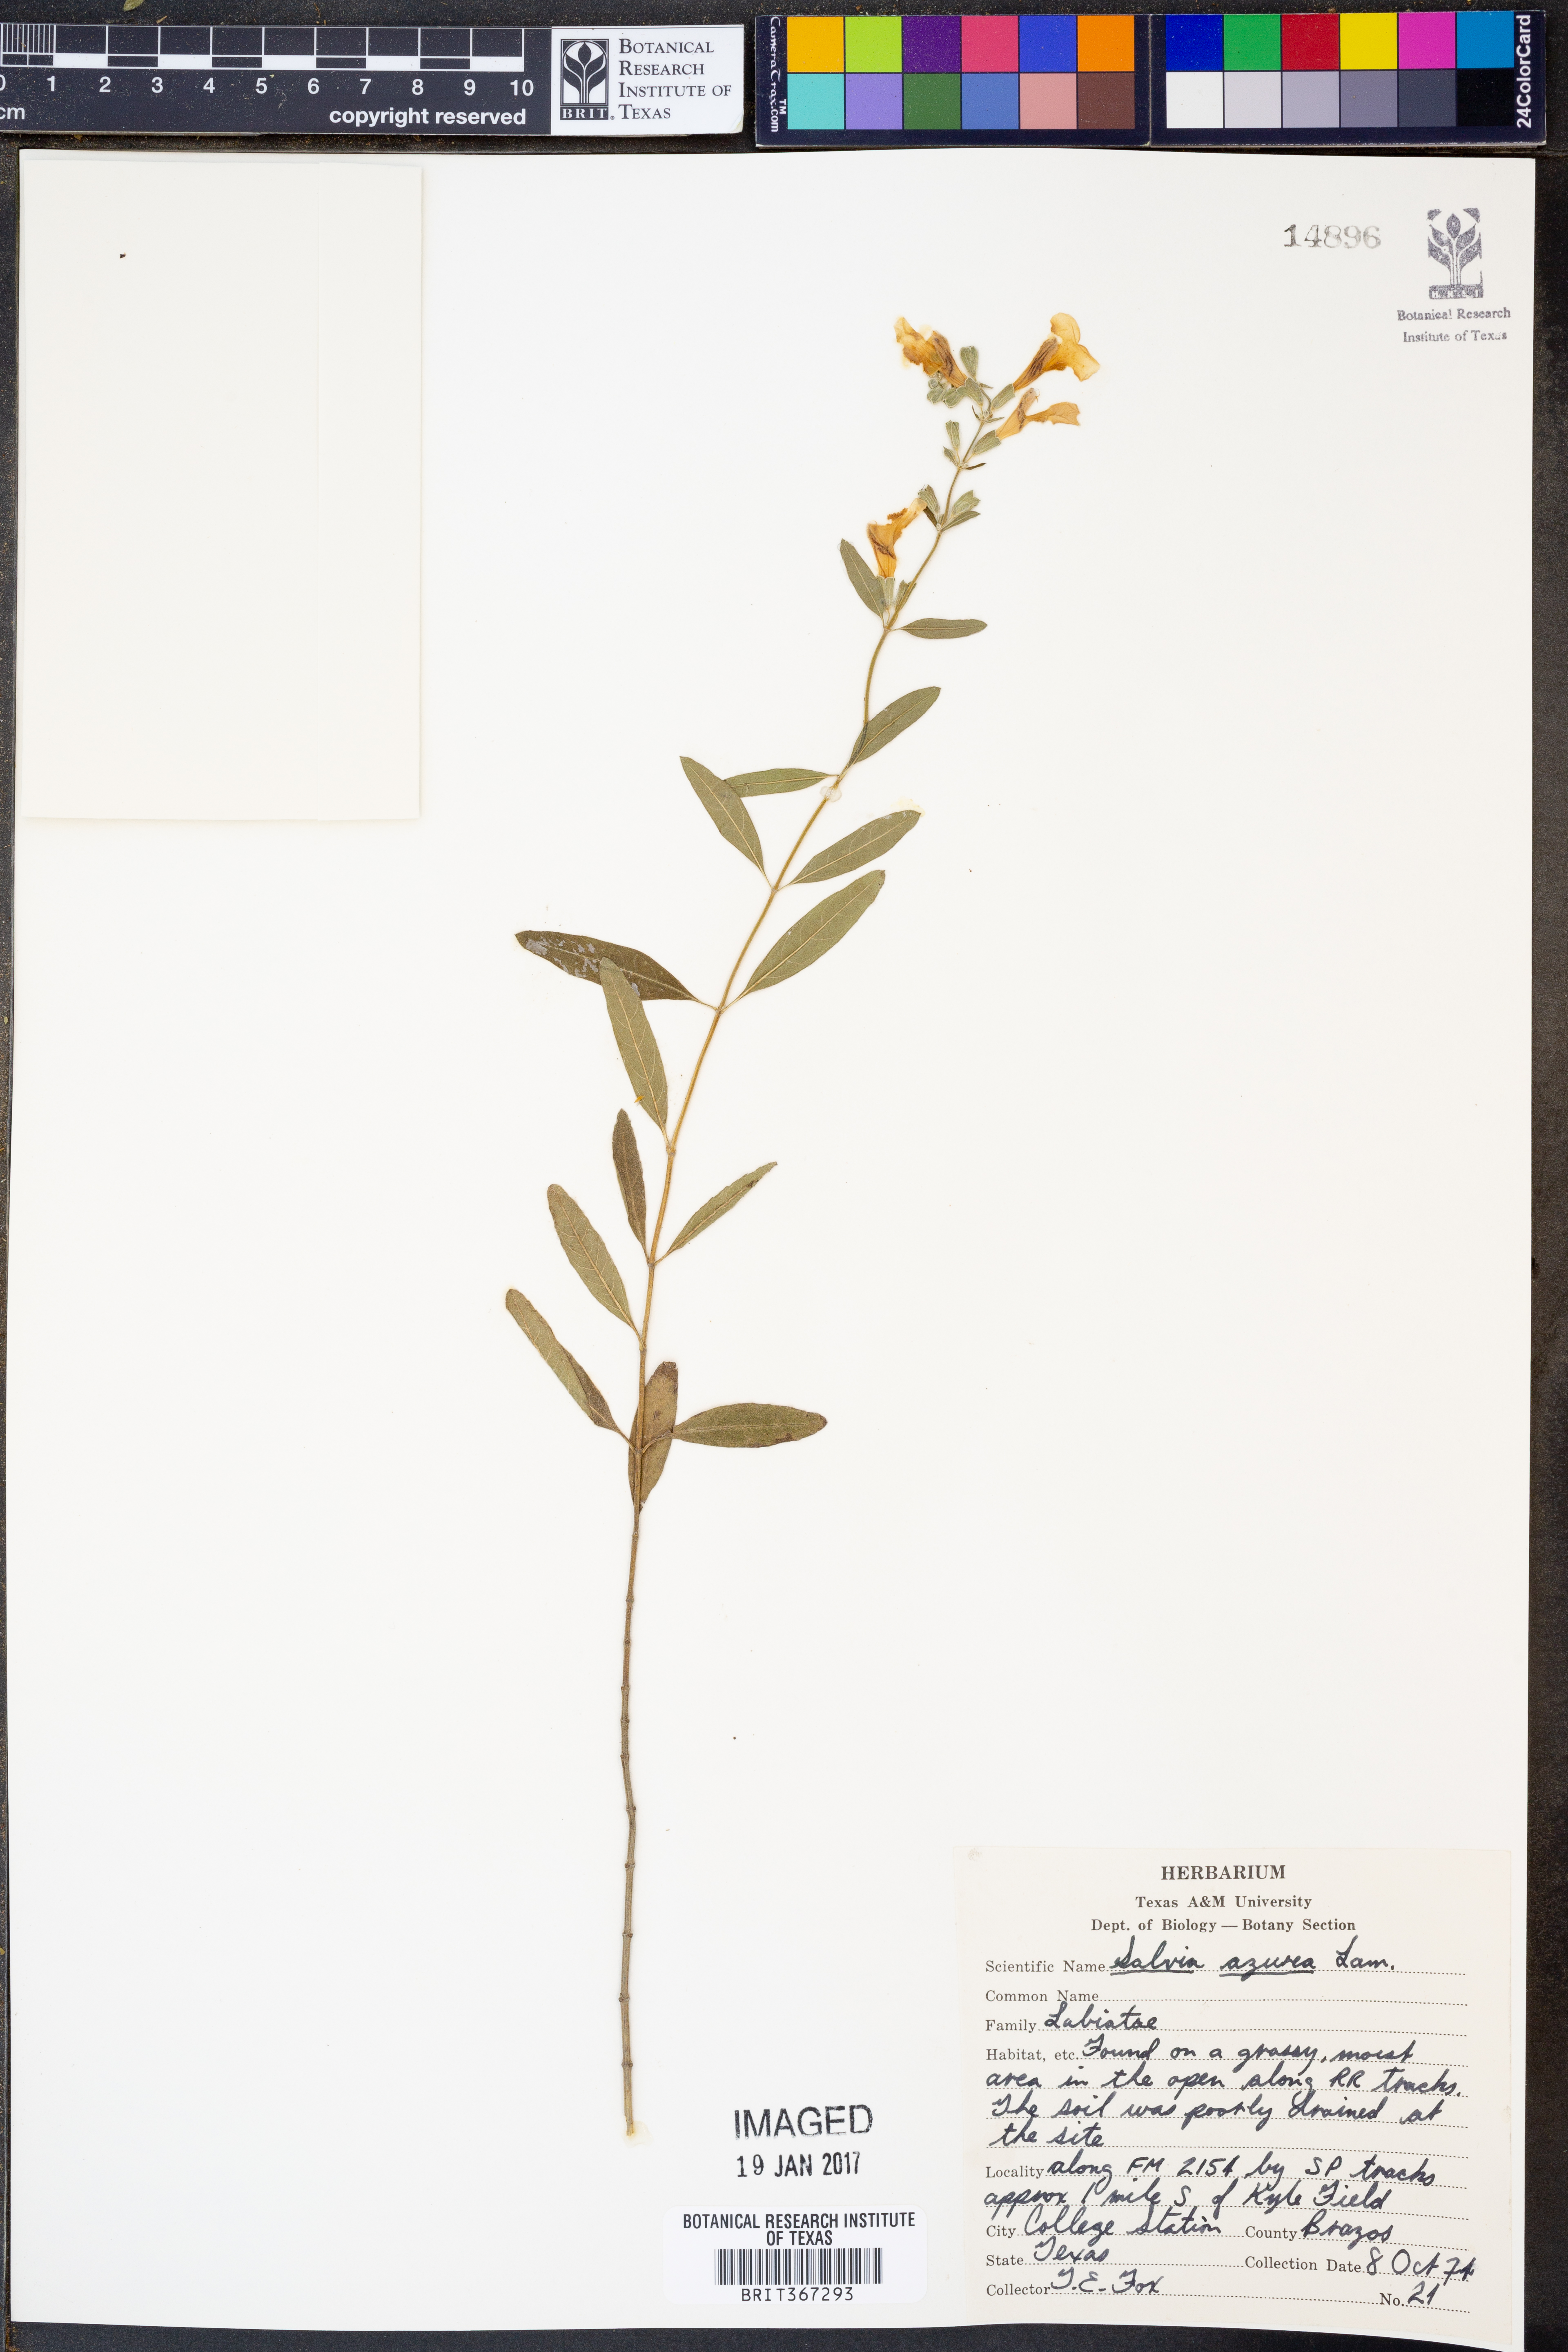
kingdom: Plantae
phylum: Tracheophyta
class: Magnoliopsida
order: Lamiales
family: Lamiaceae
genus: Salvia
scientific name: Salvia azurea
